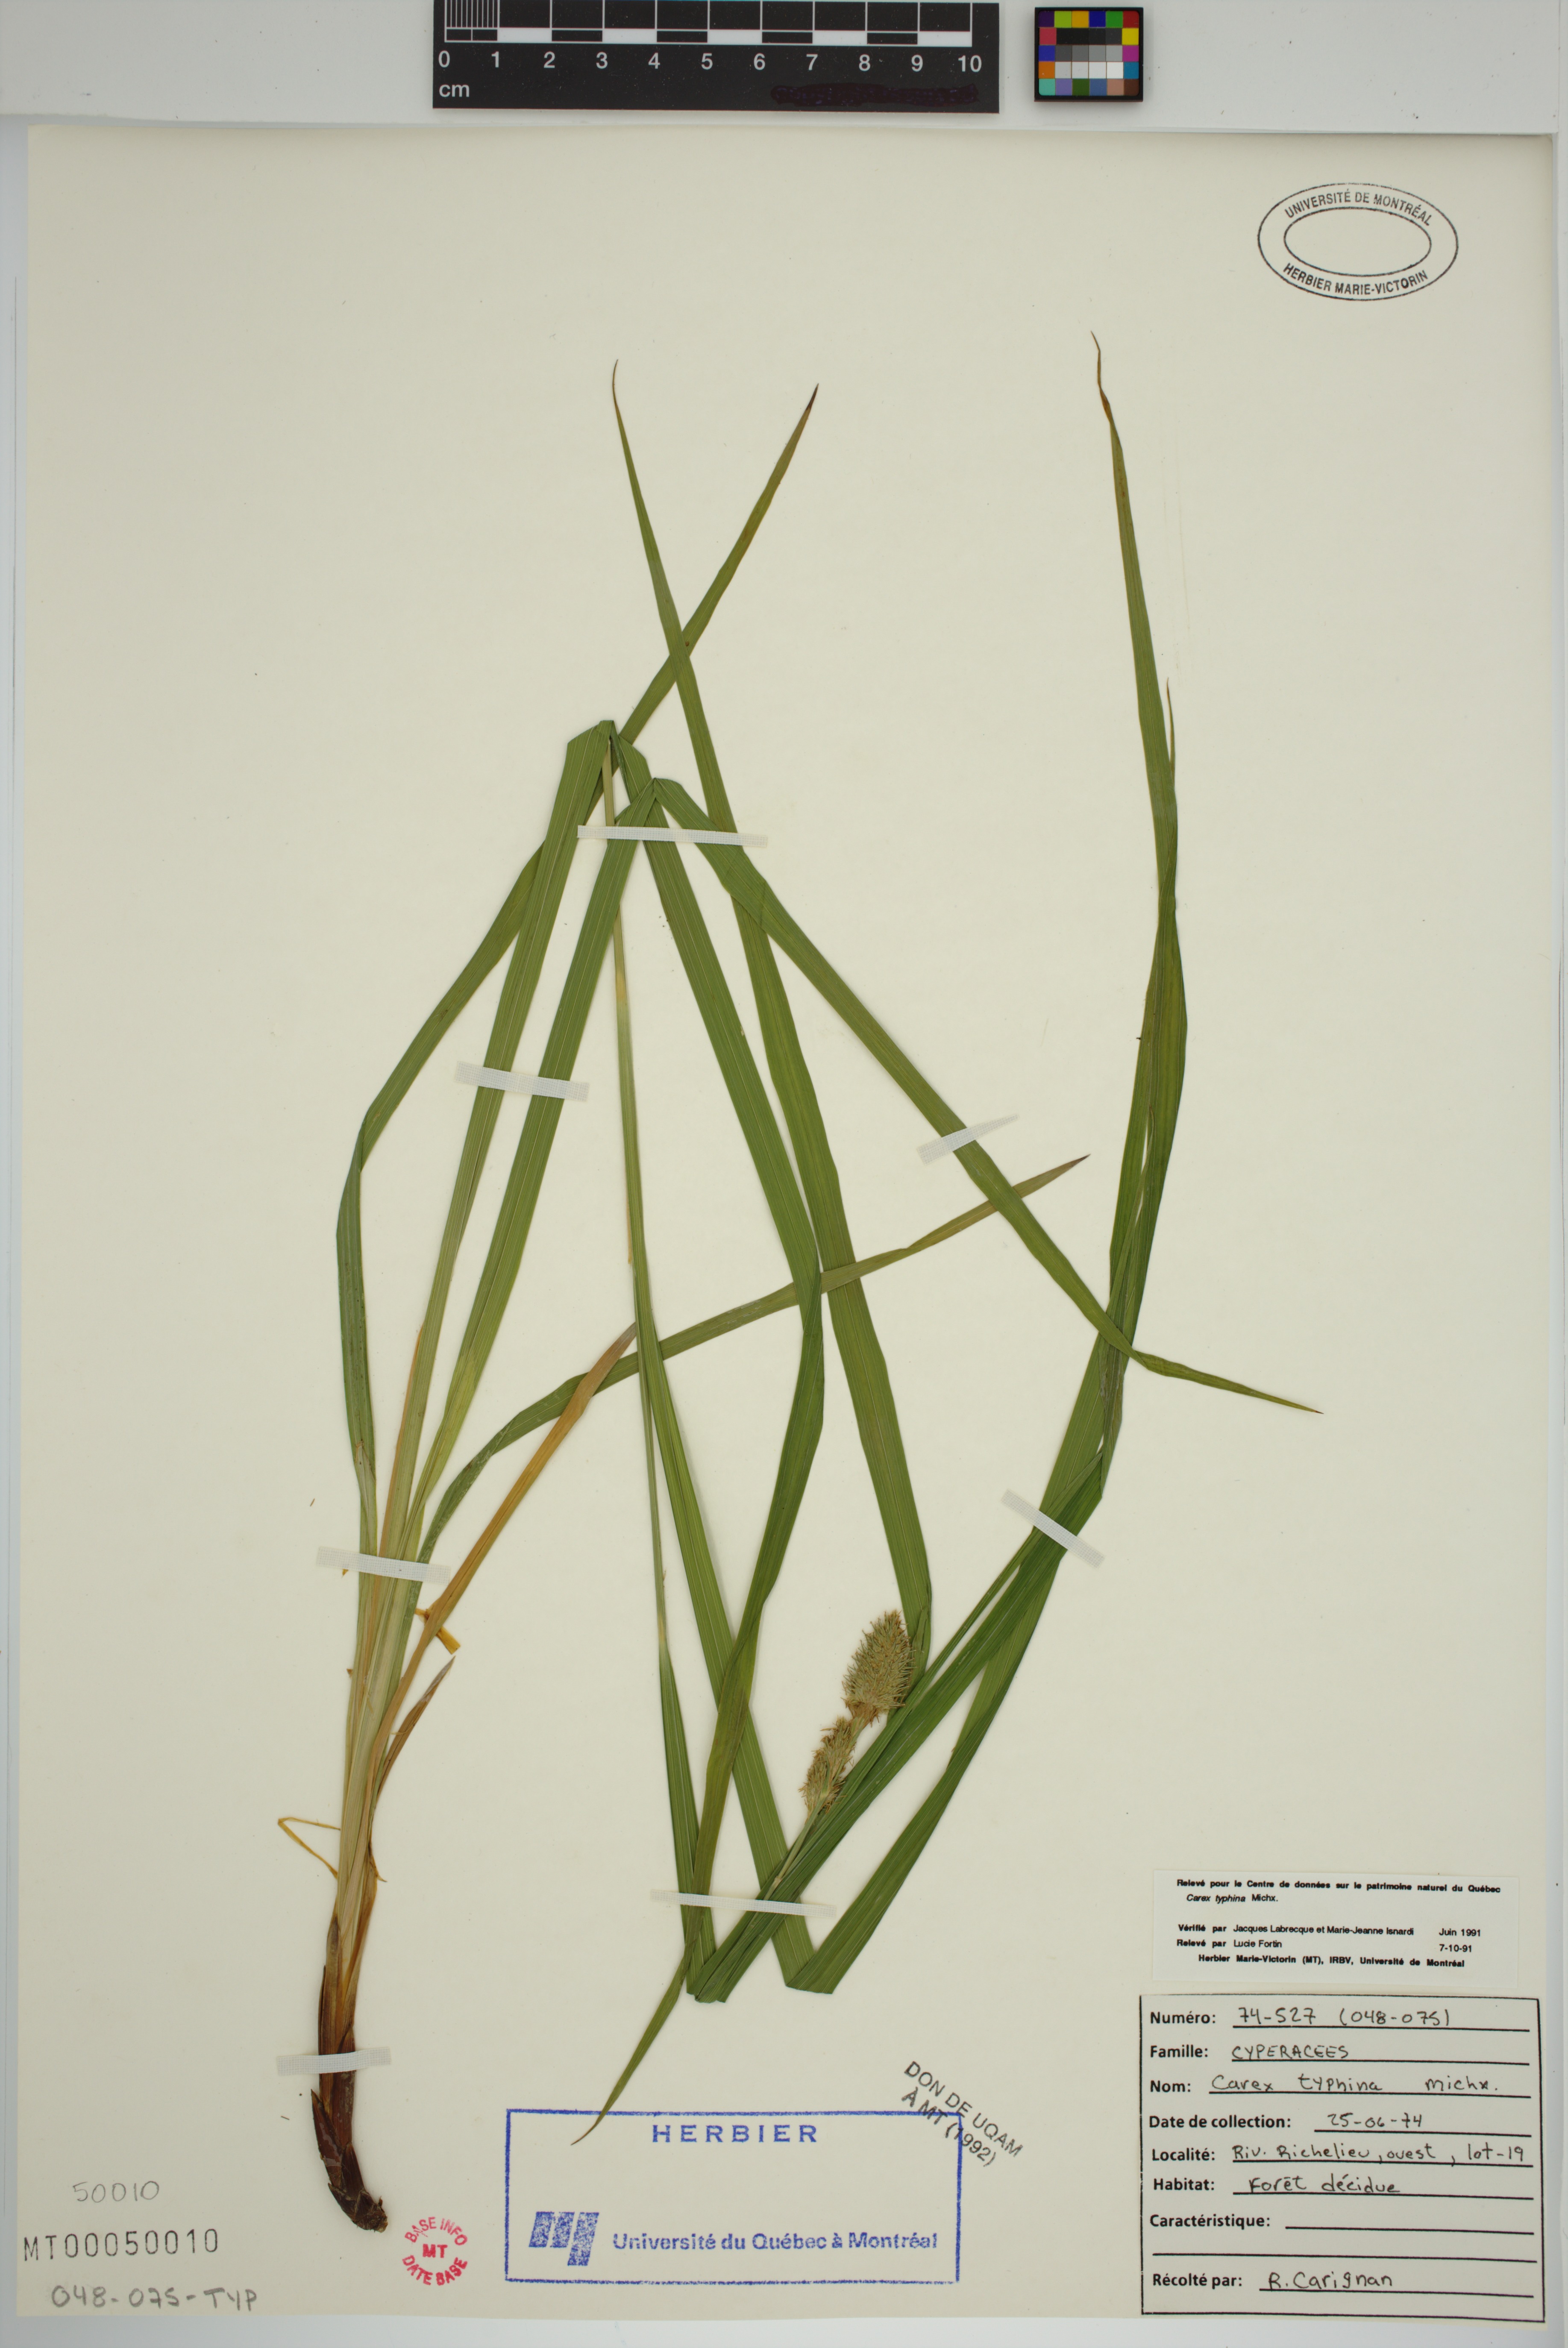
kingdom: Plantae
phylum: Tracheophyta
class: Liliopsida
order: Poales
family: Cyperaceae
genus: Carex
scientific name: Carex typhina
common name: Cattail sedge
